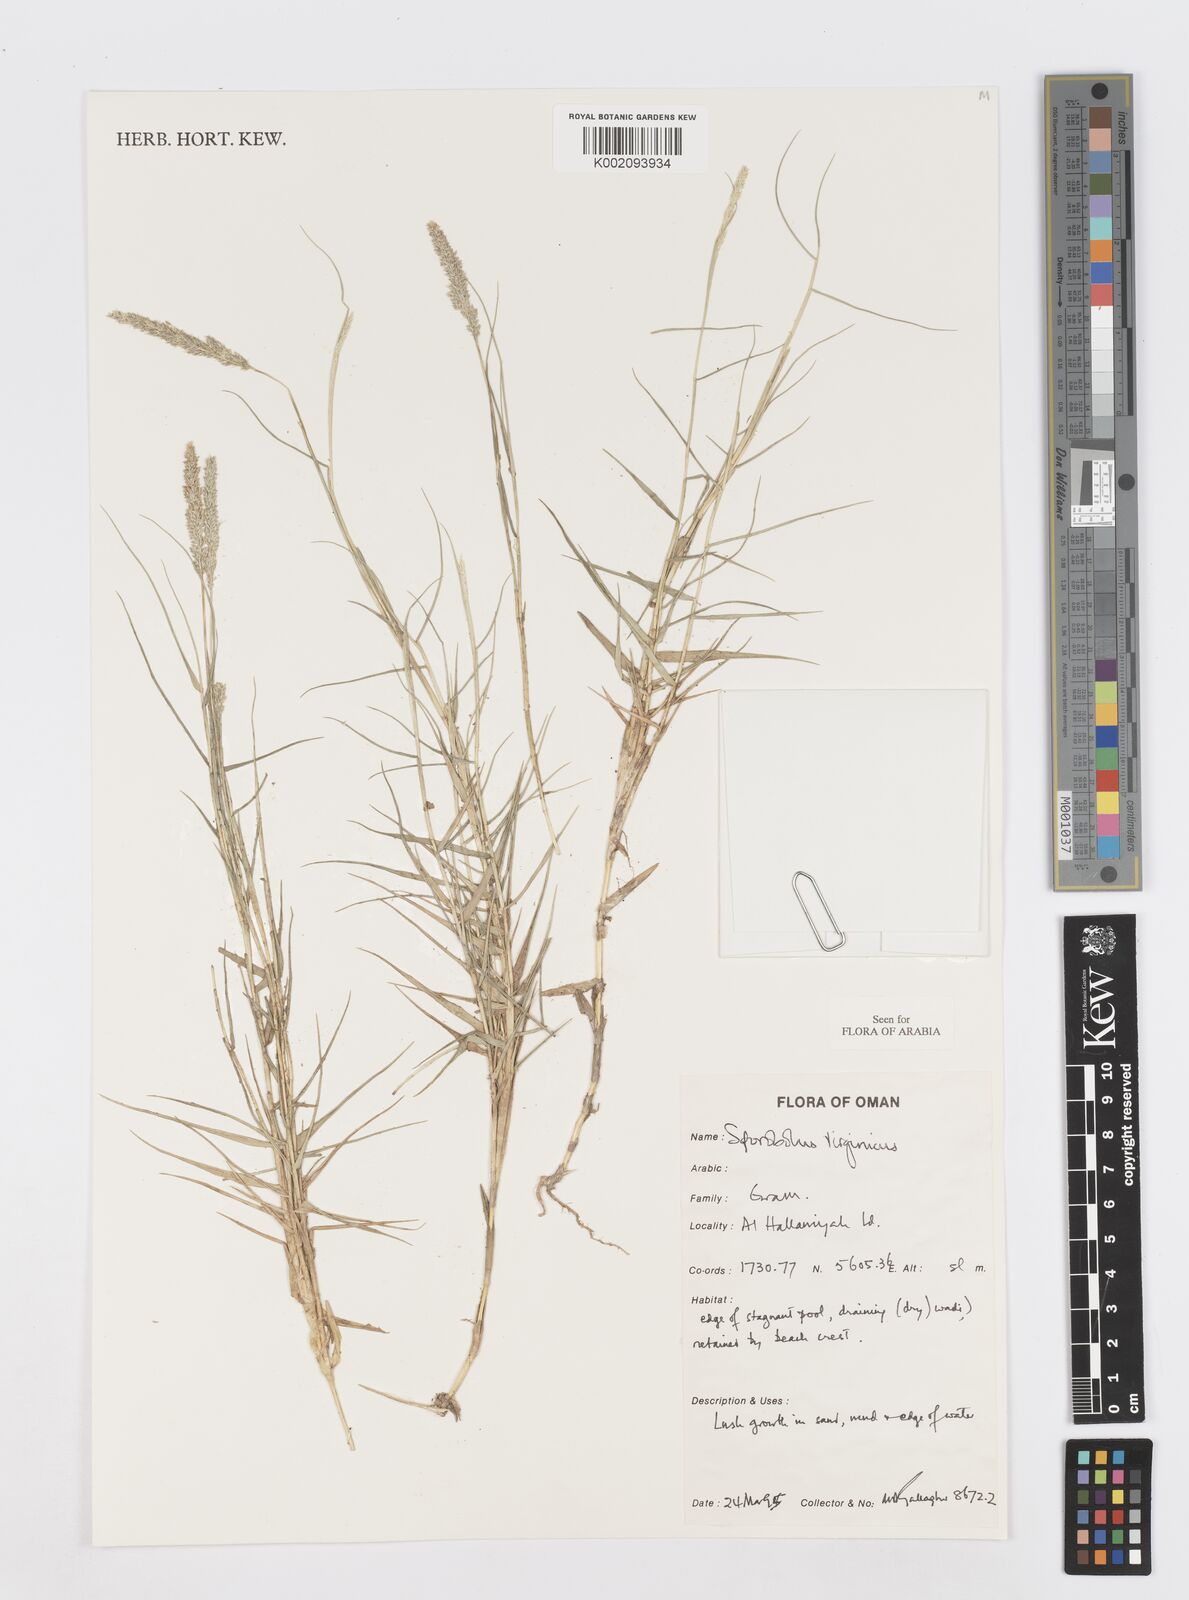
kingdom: Plantae
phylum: Tracheophyta
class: Liliopsida
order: Poales
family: Poaceae
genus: Sporobolus
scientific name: Sporobolus virginicus
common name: Beach dropseed
